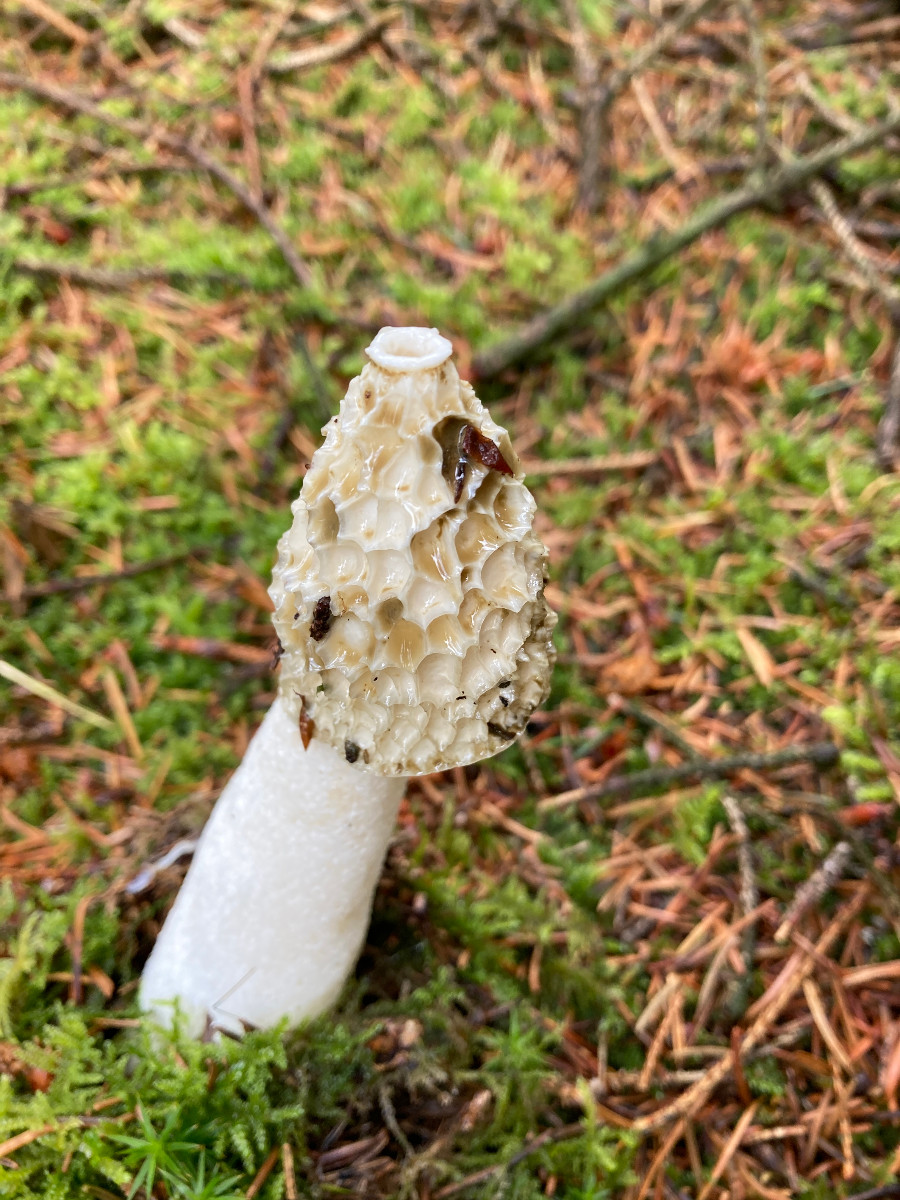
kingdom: Fungi
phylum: Basidiomycota
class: Agaricomycetes
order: Phallales
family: Phallaceae
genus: Phallus
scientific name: Phallus impudicus
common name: almindelig stinksvamp
